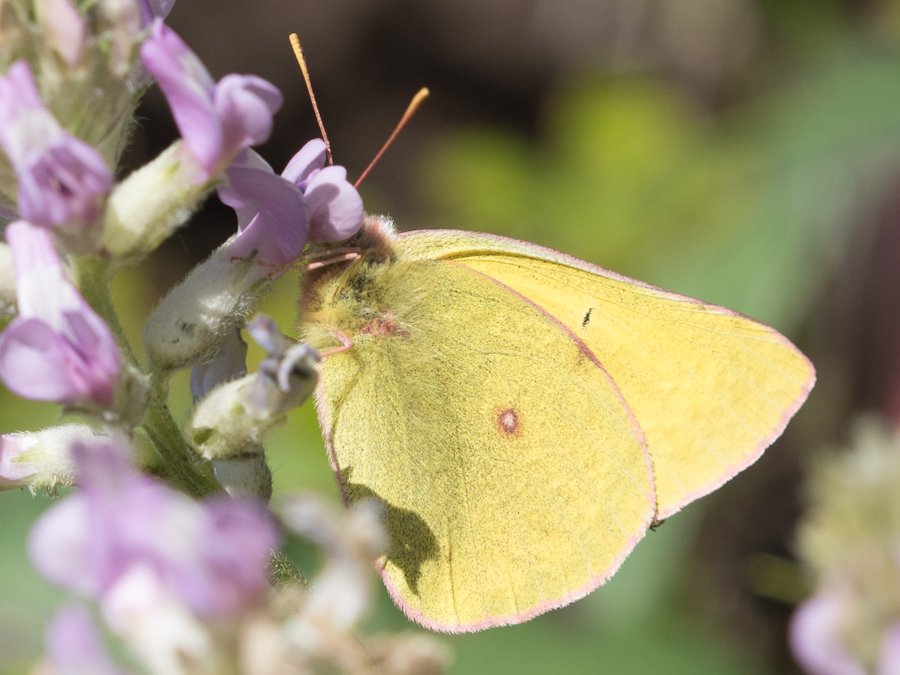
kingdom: Animalia
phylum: Arthropoda
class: Insecta
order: Lepidoptera
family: Pieridae
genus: Colias
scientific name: Colias interior
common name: Pink-edged Sulphur
